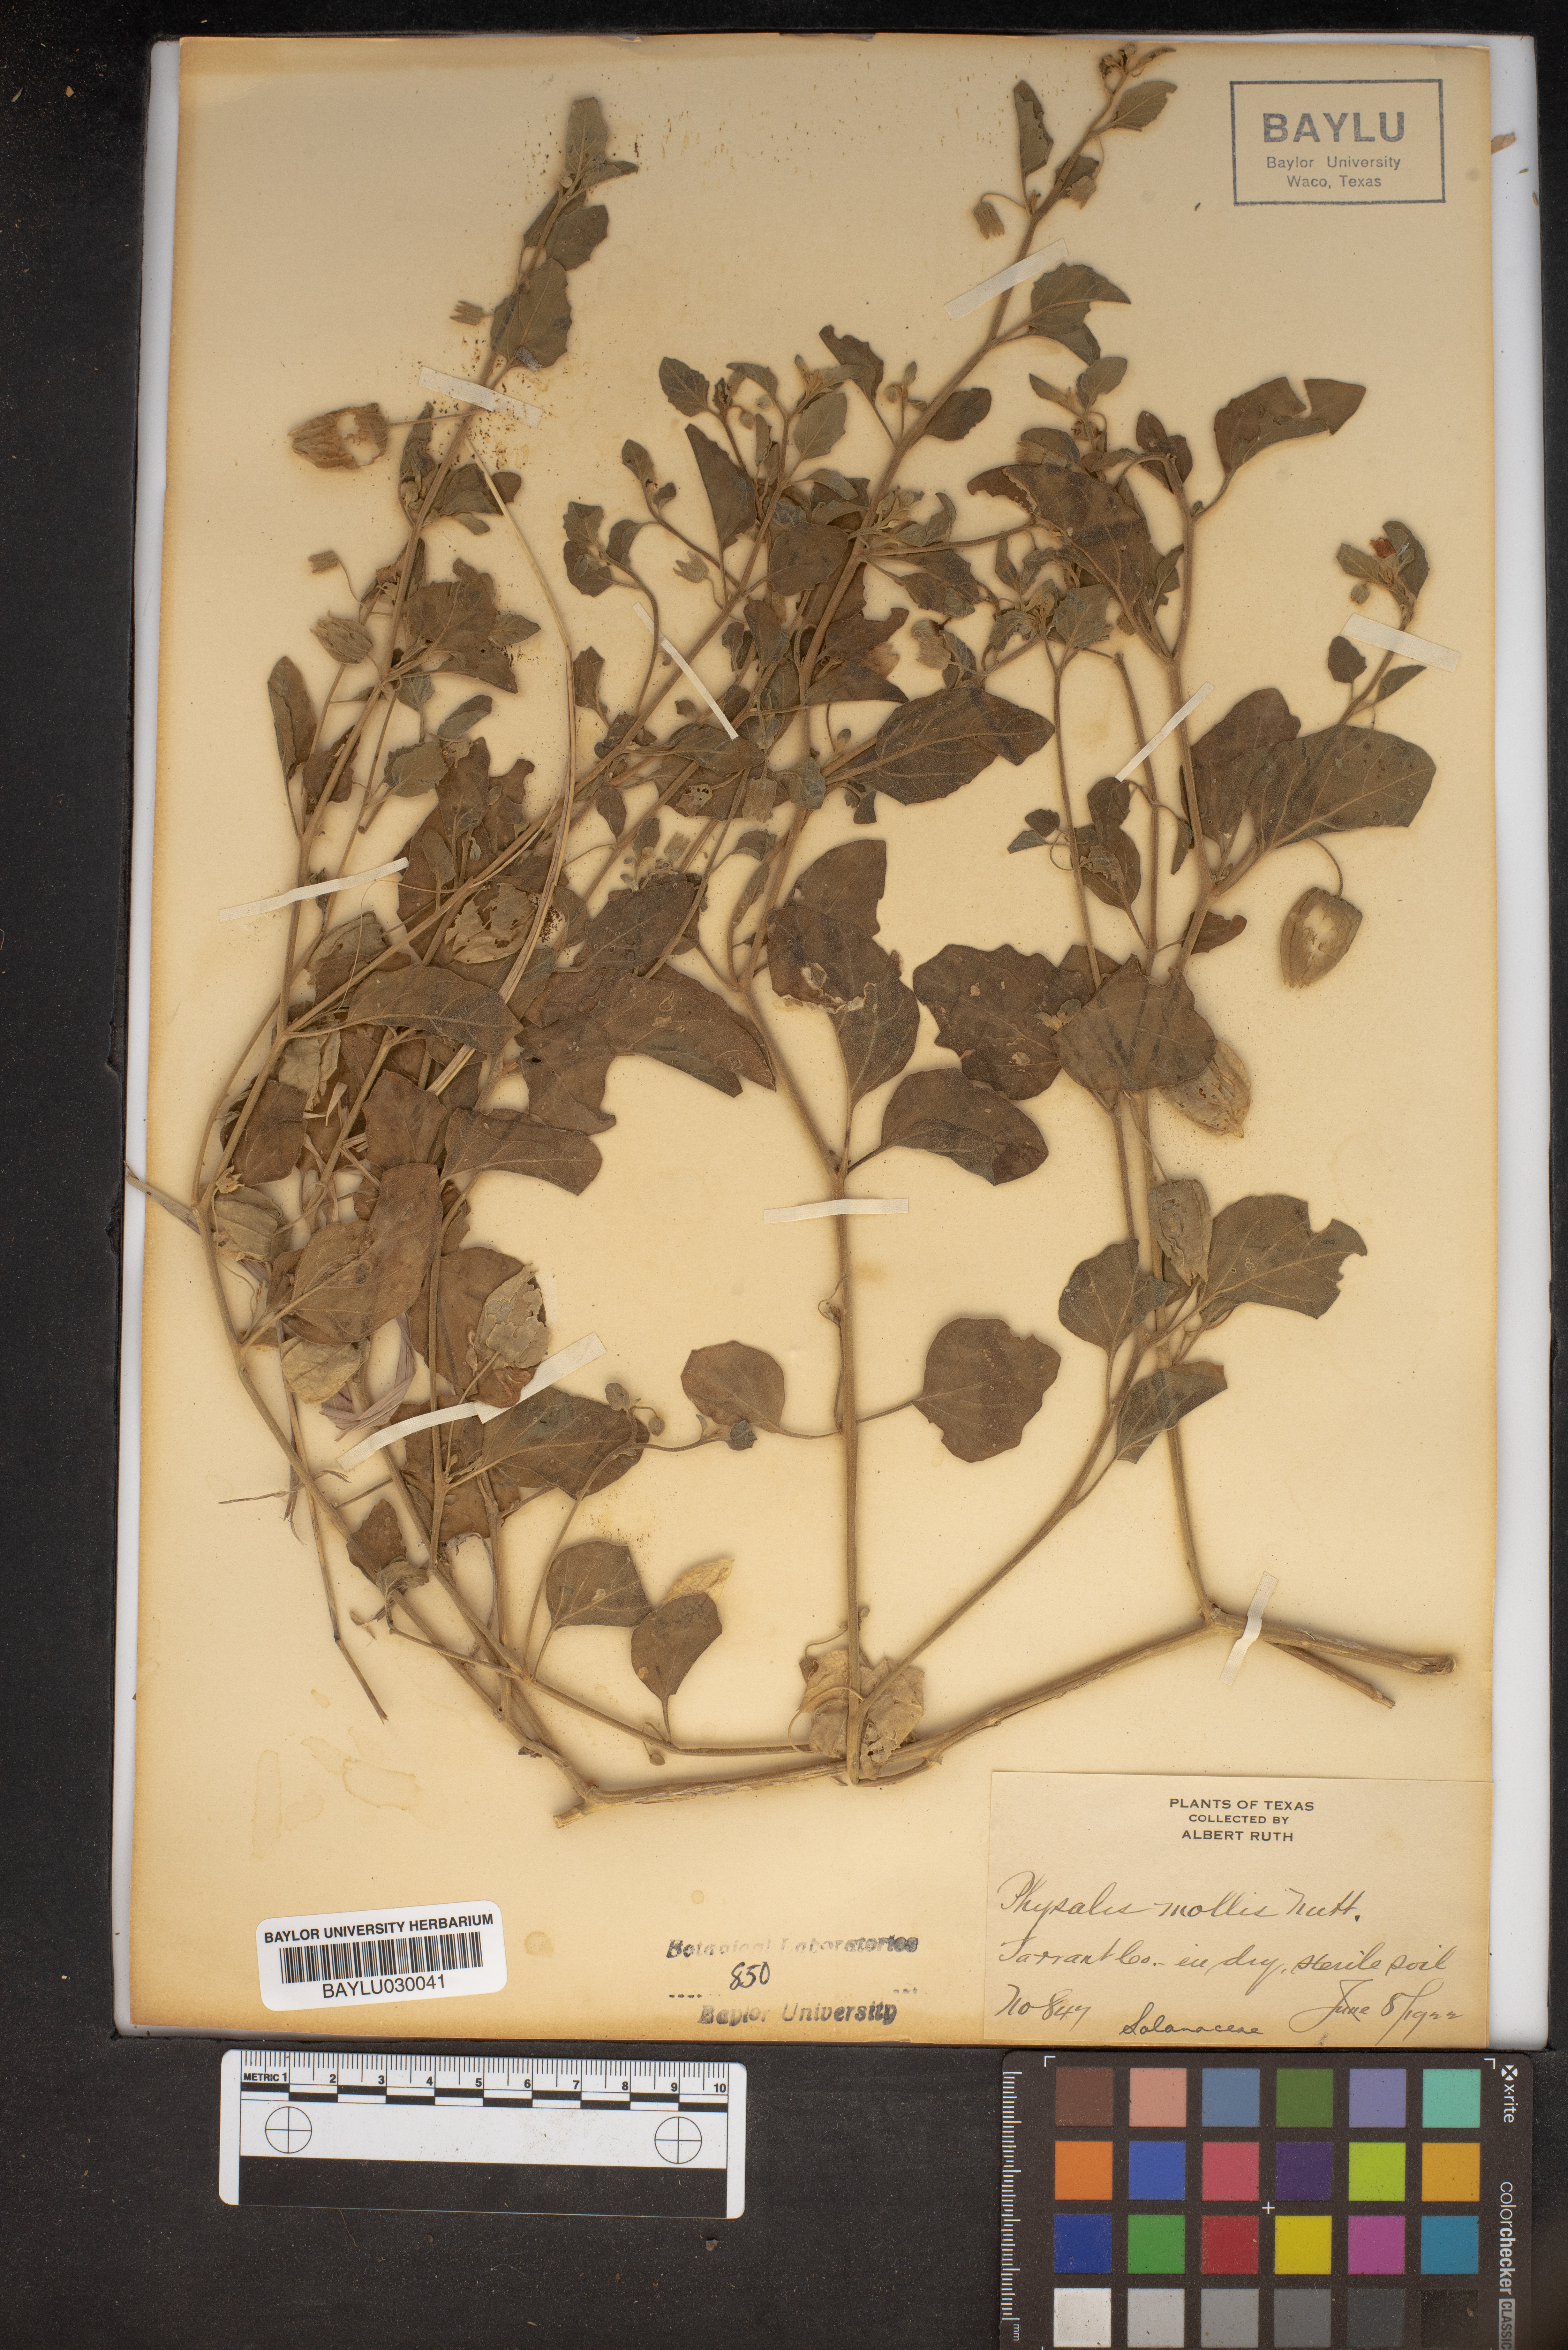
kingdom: Plantae
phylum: Tracheophyta
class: Magnoliopsida
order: Solanales
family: Solanaceae
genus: Physalis
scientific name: Physalis mollis
